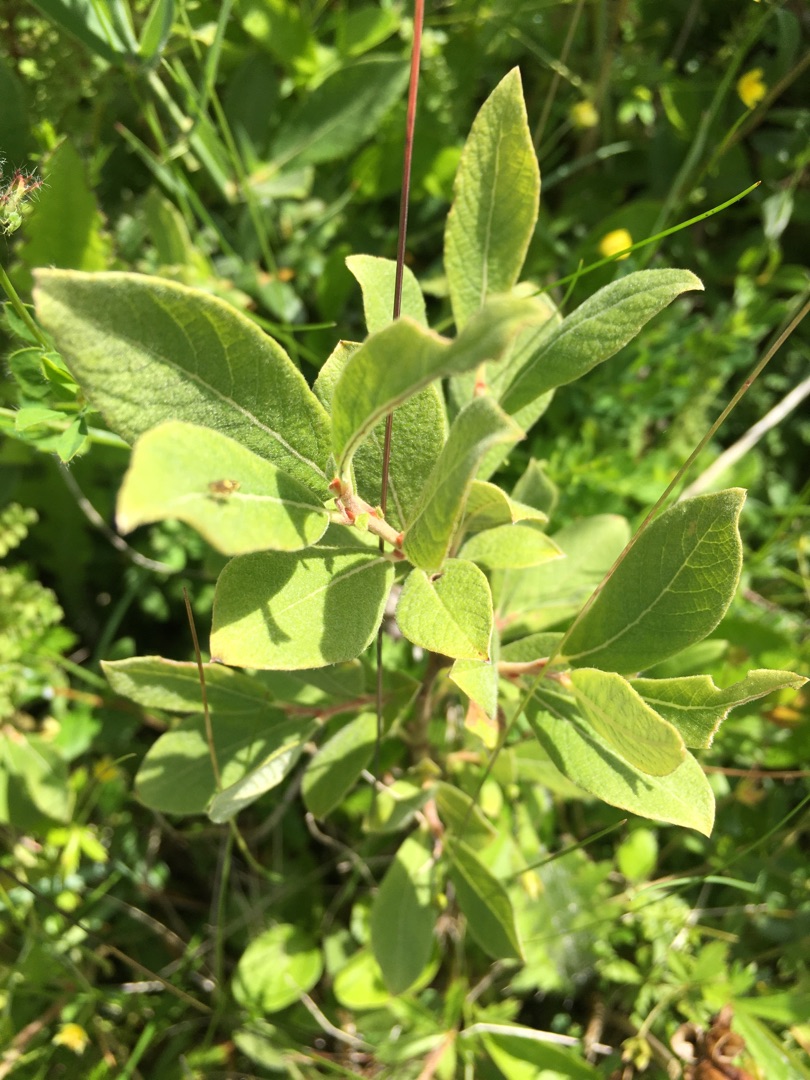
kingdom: Plantae
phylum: Tracheophyta
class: Magnoliopsida
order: Malpighiales
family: Salicaceae
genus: Salix
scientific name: Salix aurita
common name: Øret pil
